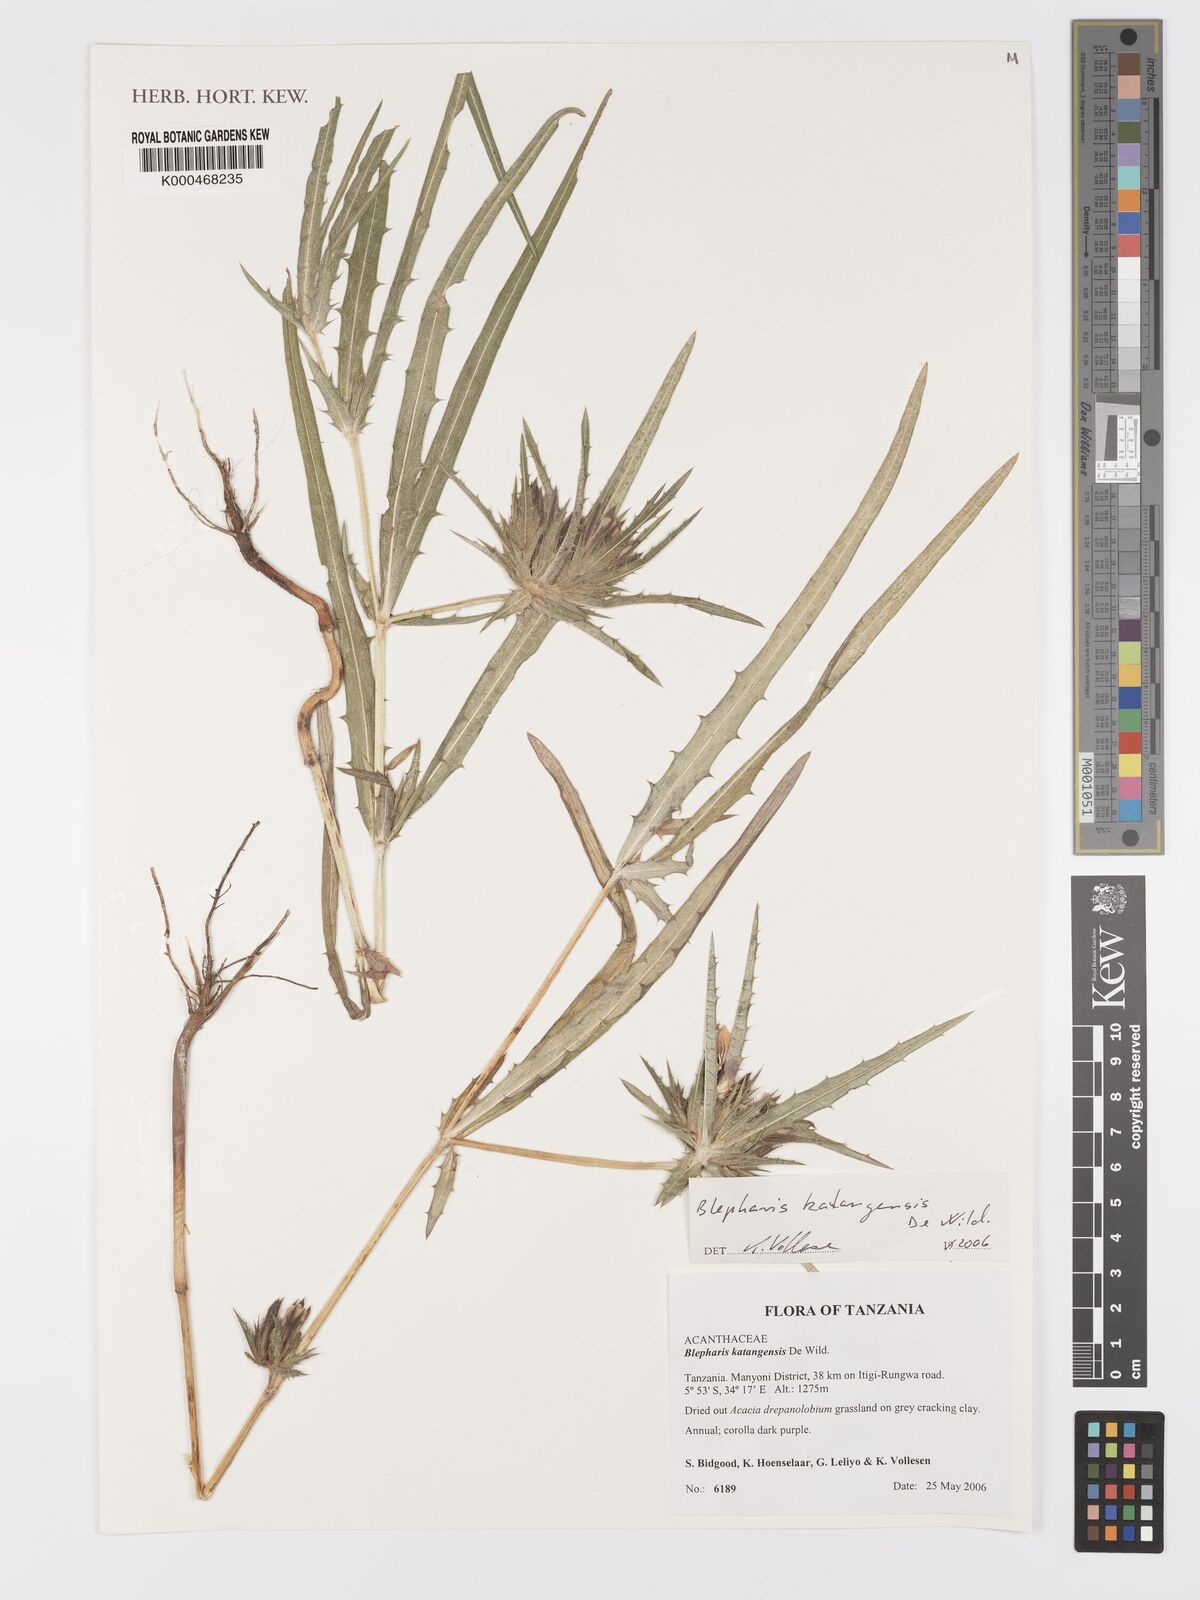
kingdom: Plantae
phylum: Tracheophyta
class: Magnoliopsida
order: Lamiales
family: Acanthaceae
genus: Blepharis
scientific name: Blepharis katangensis
